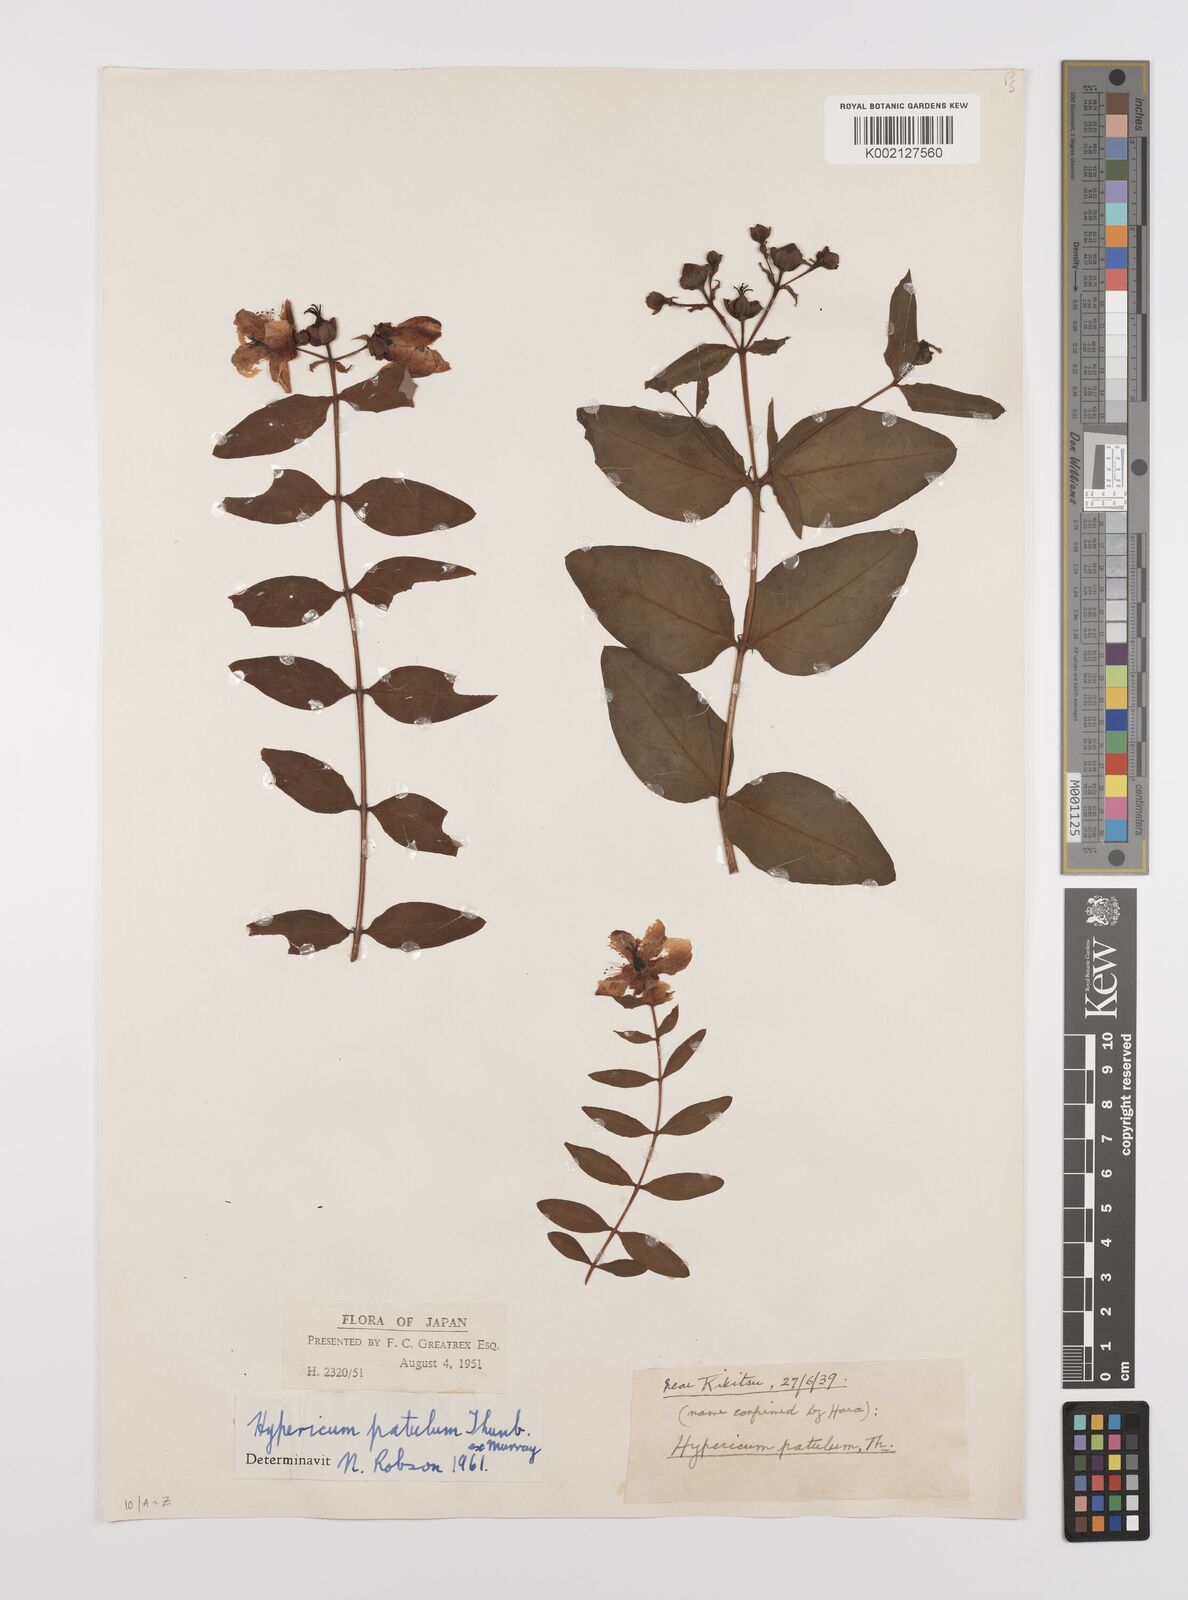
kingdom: Plantae
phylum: Tracheophyta
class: Magnoliopsida
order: Malpighiales
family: Hypericaceae
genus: Hypericum
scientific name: Hypericum patulum
